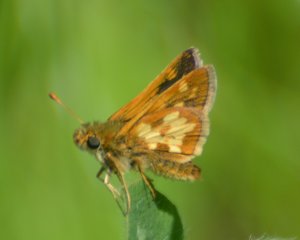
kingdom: Animalia
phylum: Arthropoda
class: Insecta
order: Lepidoptera
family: Hesperiidae
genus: Polites
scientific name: Polites coras
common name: Peck's Skipper
